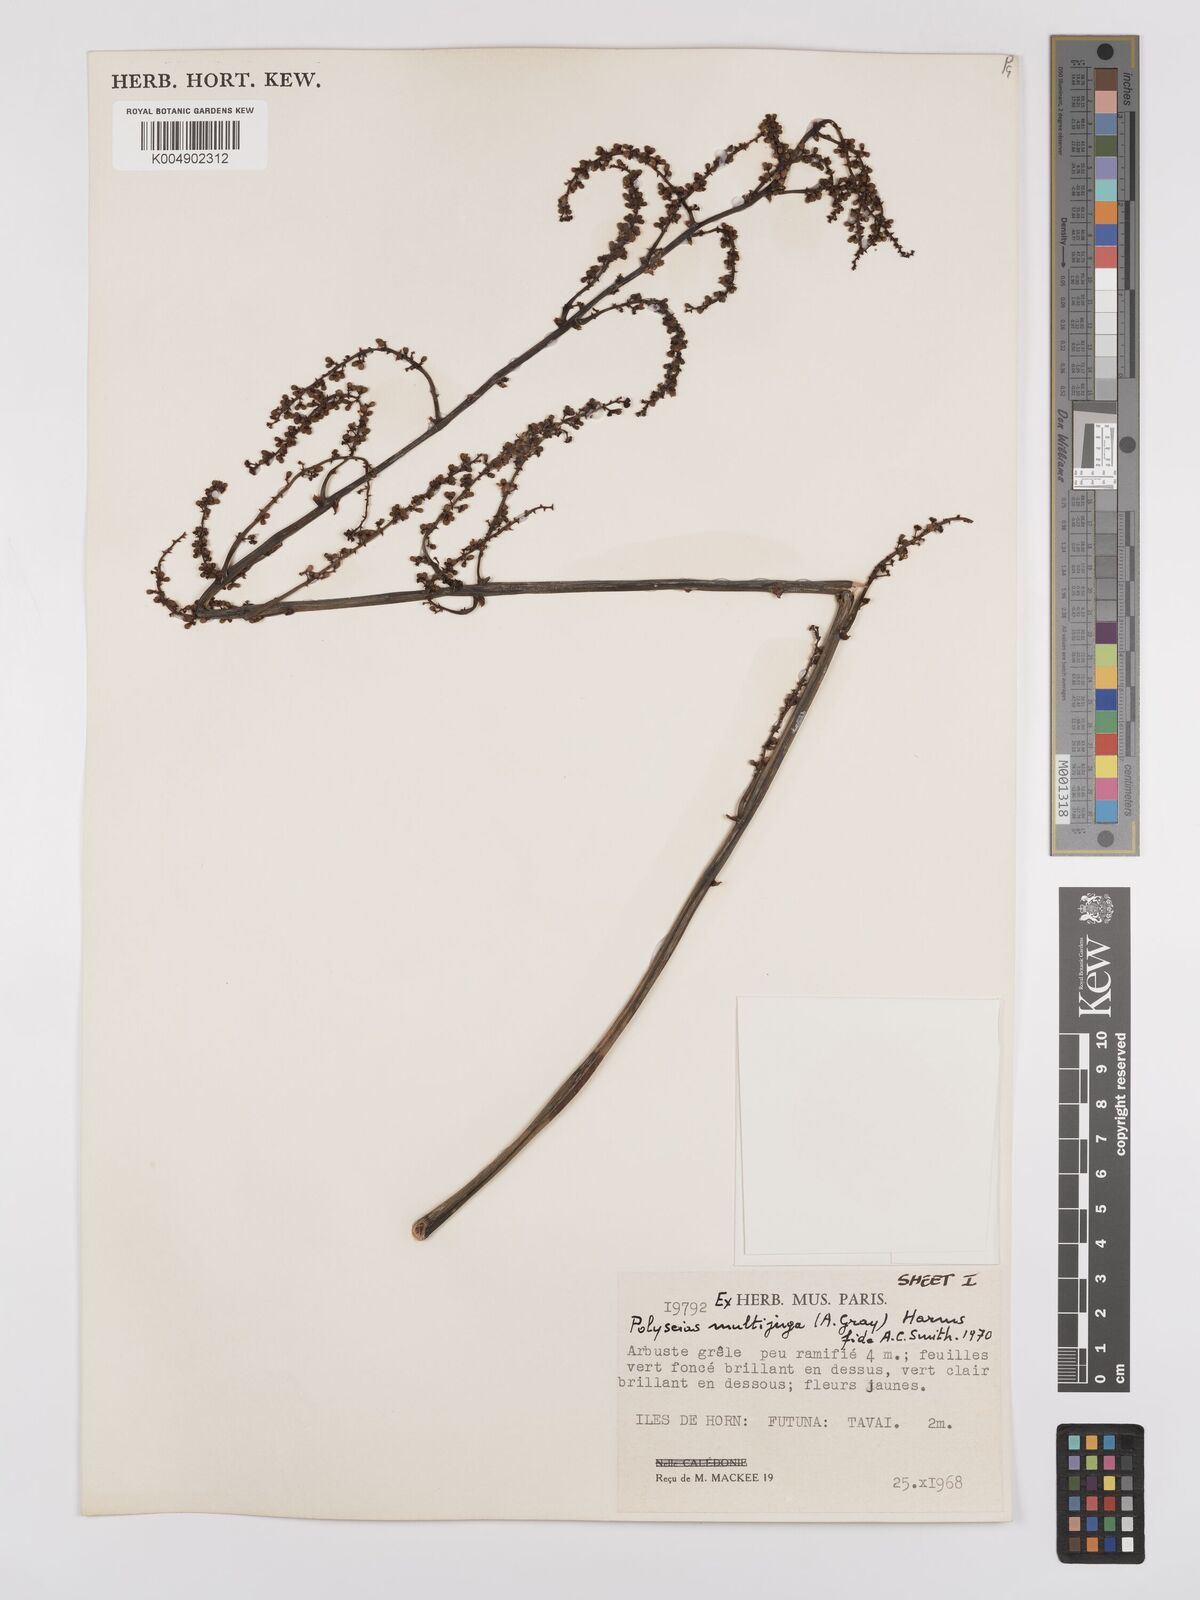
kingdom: Plantae
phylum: Tracheophyta
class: Magnoliopsida
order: Apiales
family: Araliaceae
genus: Polyscias
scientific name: Polyscias multijuga
